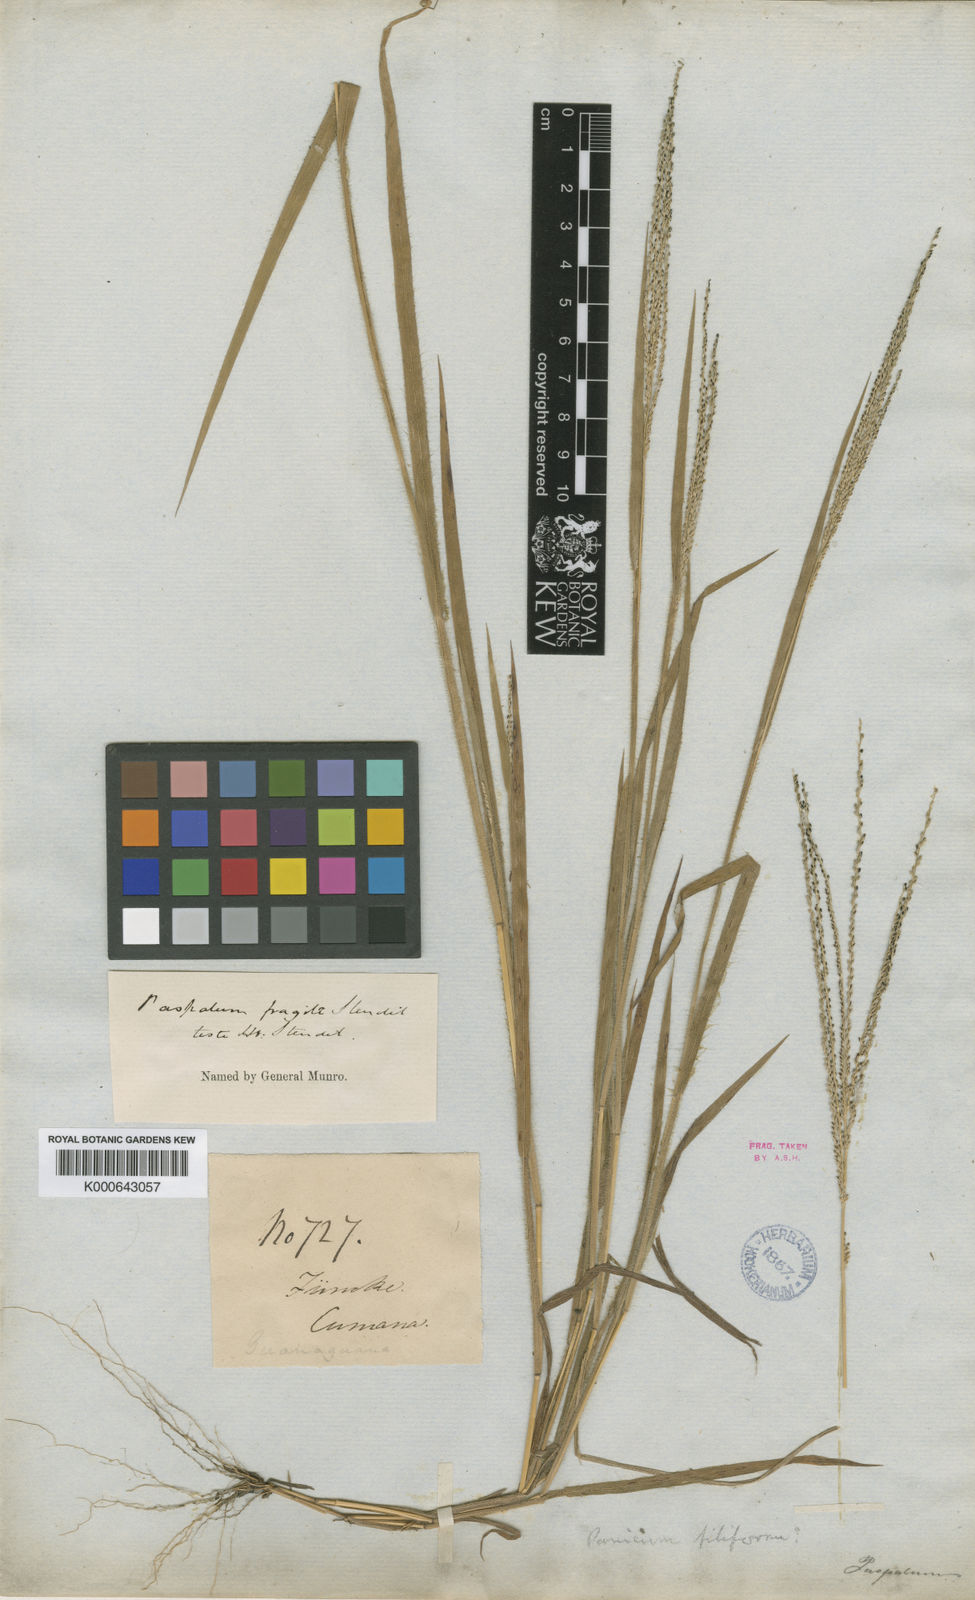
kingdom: Plantae
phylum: Tracheophyta
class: Liliopsida
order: Poales
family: Poaceae
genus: Digitaria
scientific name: Digitaria fragilis
